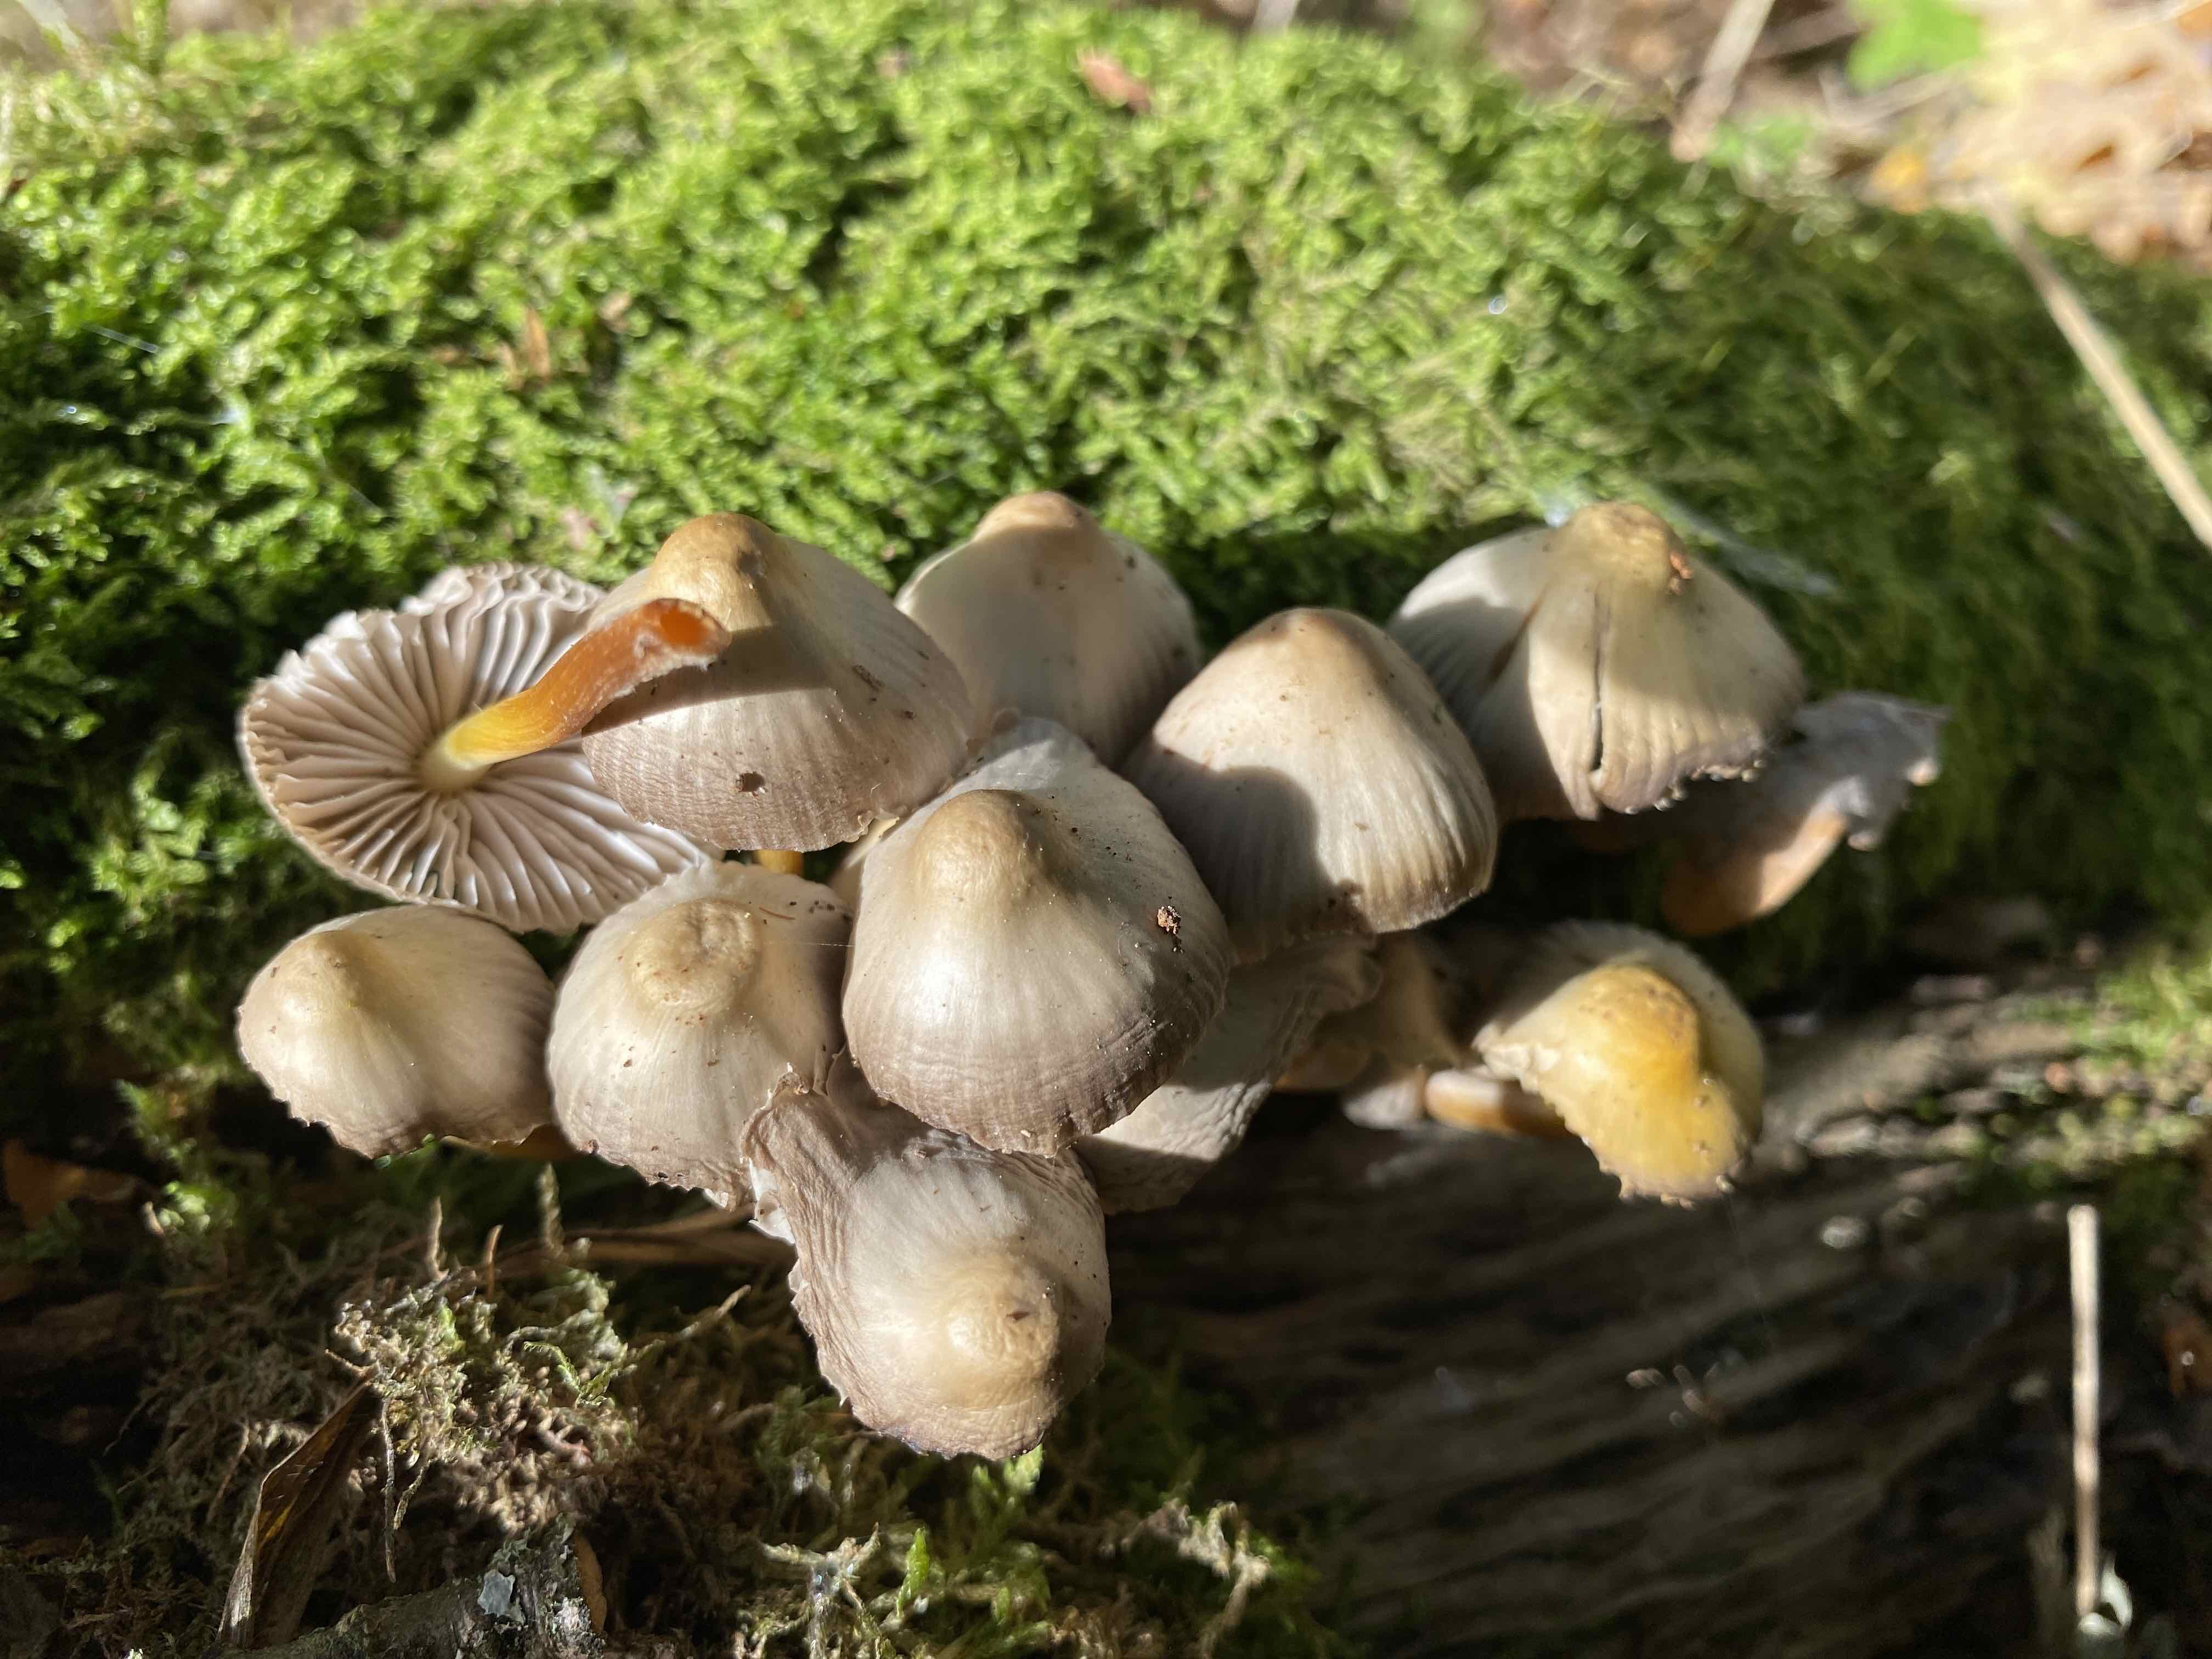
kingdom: Fungi
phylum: Basidiomycota
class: Agaricomycetes
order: Agaricales
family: Mycenaceae
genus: Mycena
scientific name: Mycena inclinata
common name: nikkende huesvamp
